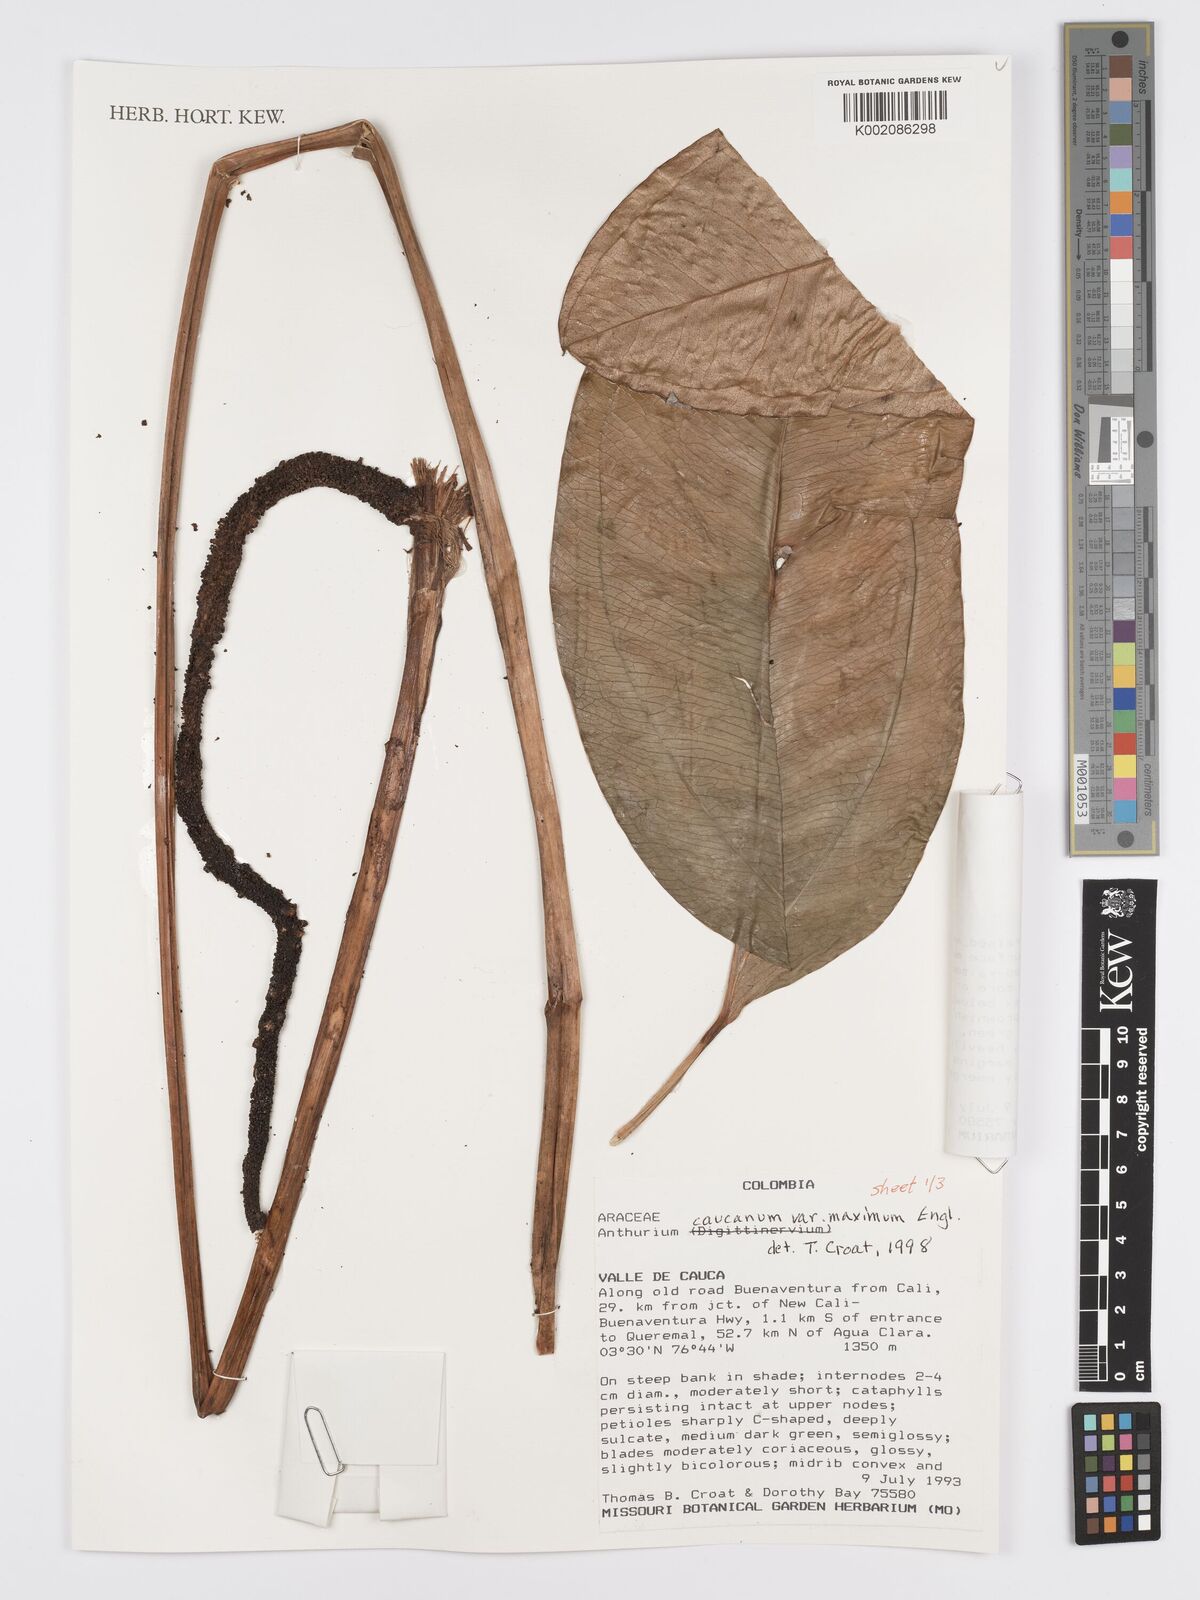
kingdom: Plantae
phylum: Tracheophyta
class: Liliopsida
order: Alismatales
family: Araceae
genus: Anthurium
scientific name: Anthurium jesusii
